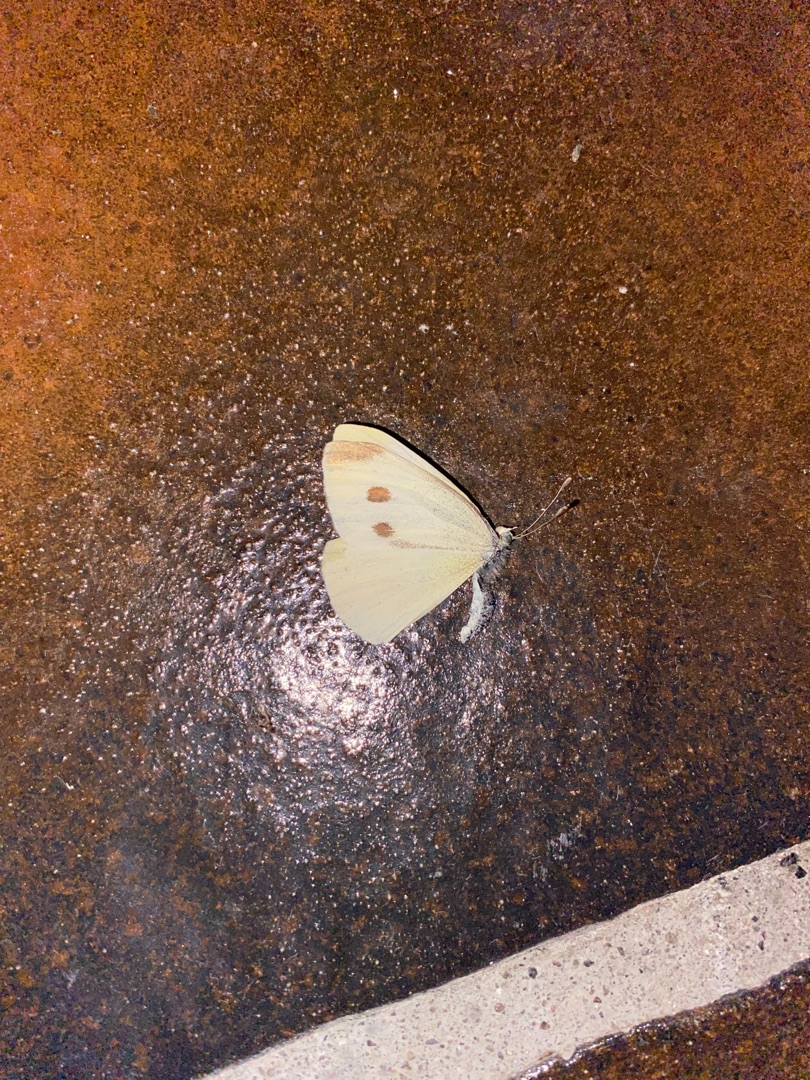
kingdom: Animalia
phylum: Arthropoda
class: Insecta
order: Lepidoptera
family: Pieridae
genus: Pieris
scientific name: Pieris rapae
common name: Lille kålsommerfugl
